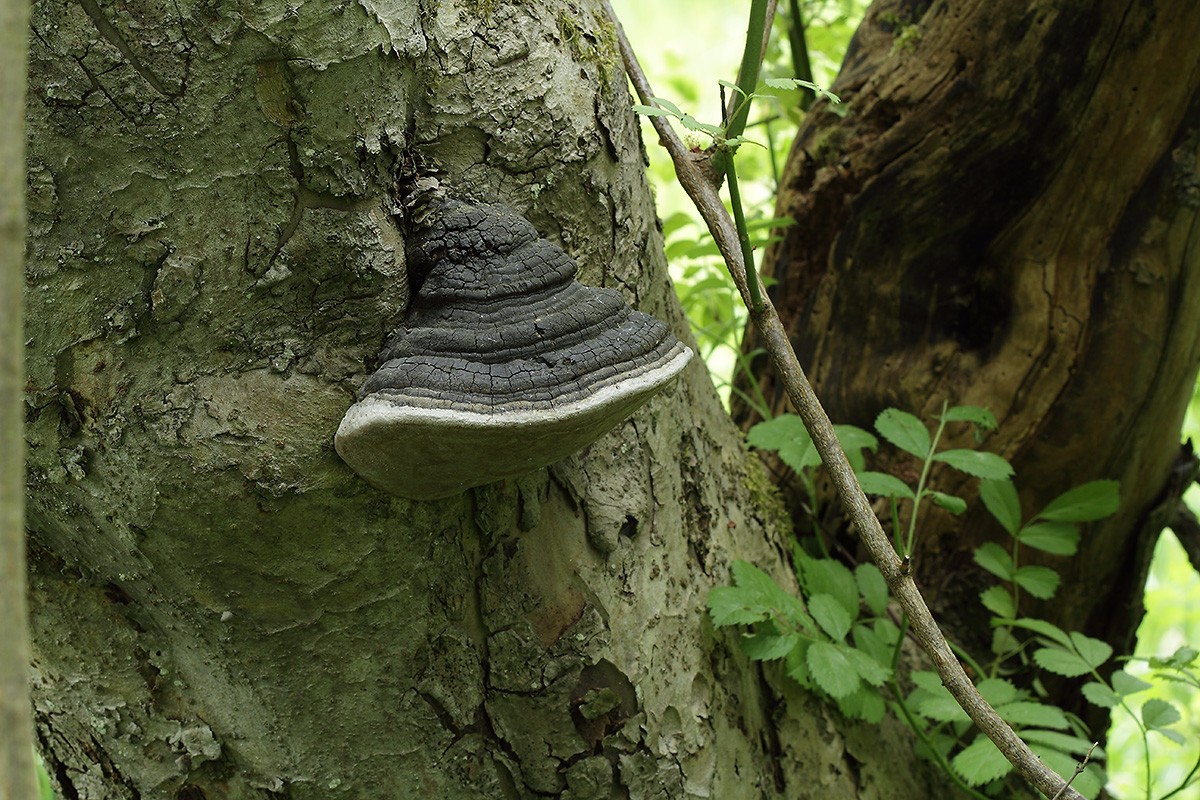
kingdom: Fungi
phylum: Basidiomycota
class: Agaricomycetes
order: Hymenochaetales
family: Hymenochaetaceae
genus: Phellinus
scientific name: Phellinus igniarius
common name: elle-ildporesvamp
